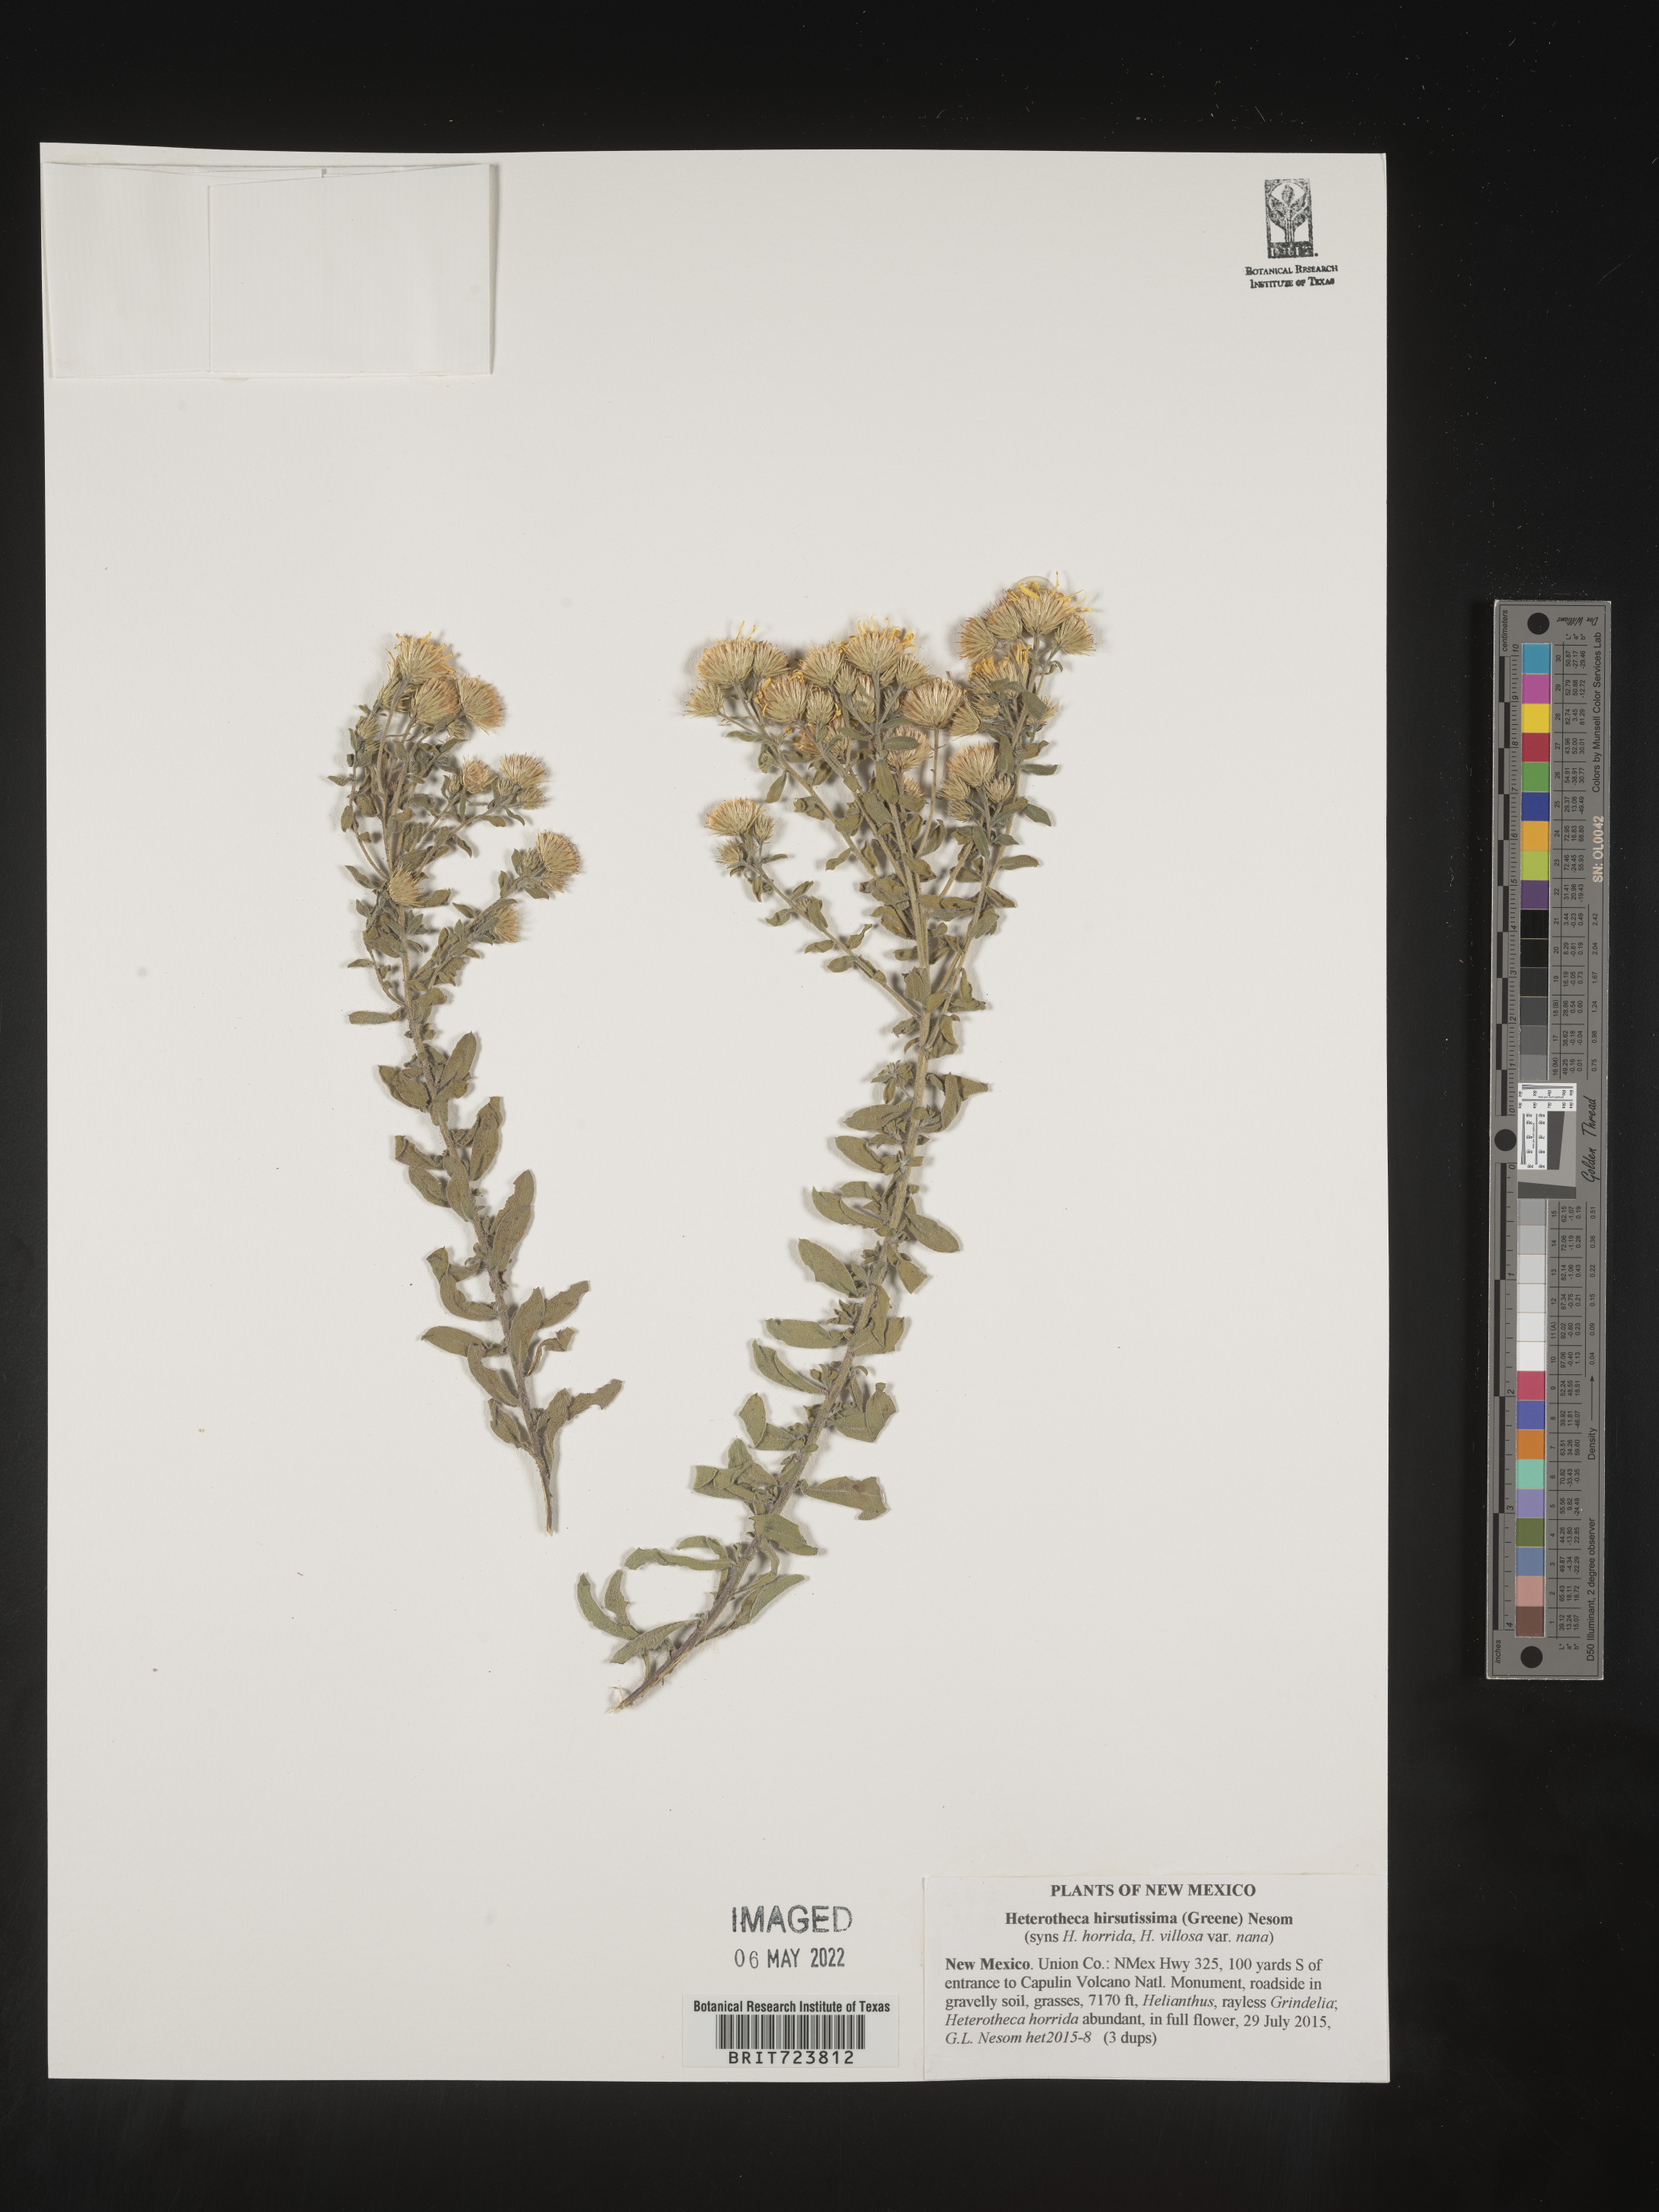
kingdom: Plantae
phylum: Tracheophyta
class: Magnoliopsida
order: Asterales
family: Asteraceae
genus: Heterotheca
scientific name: Heterotheca hirsutissima
